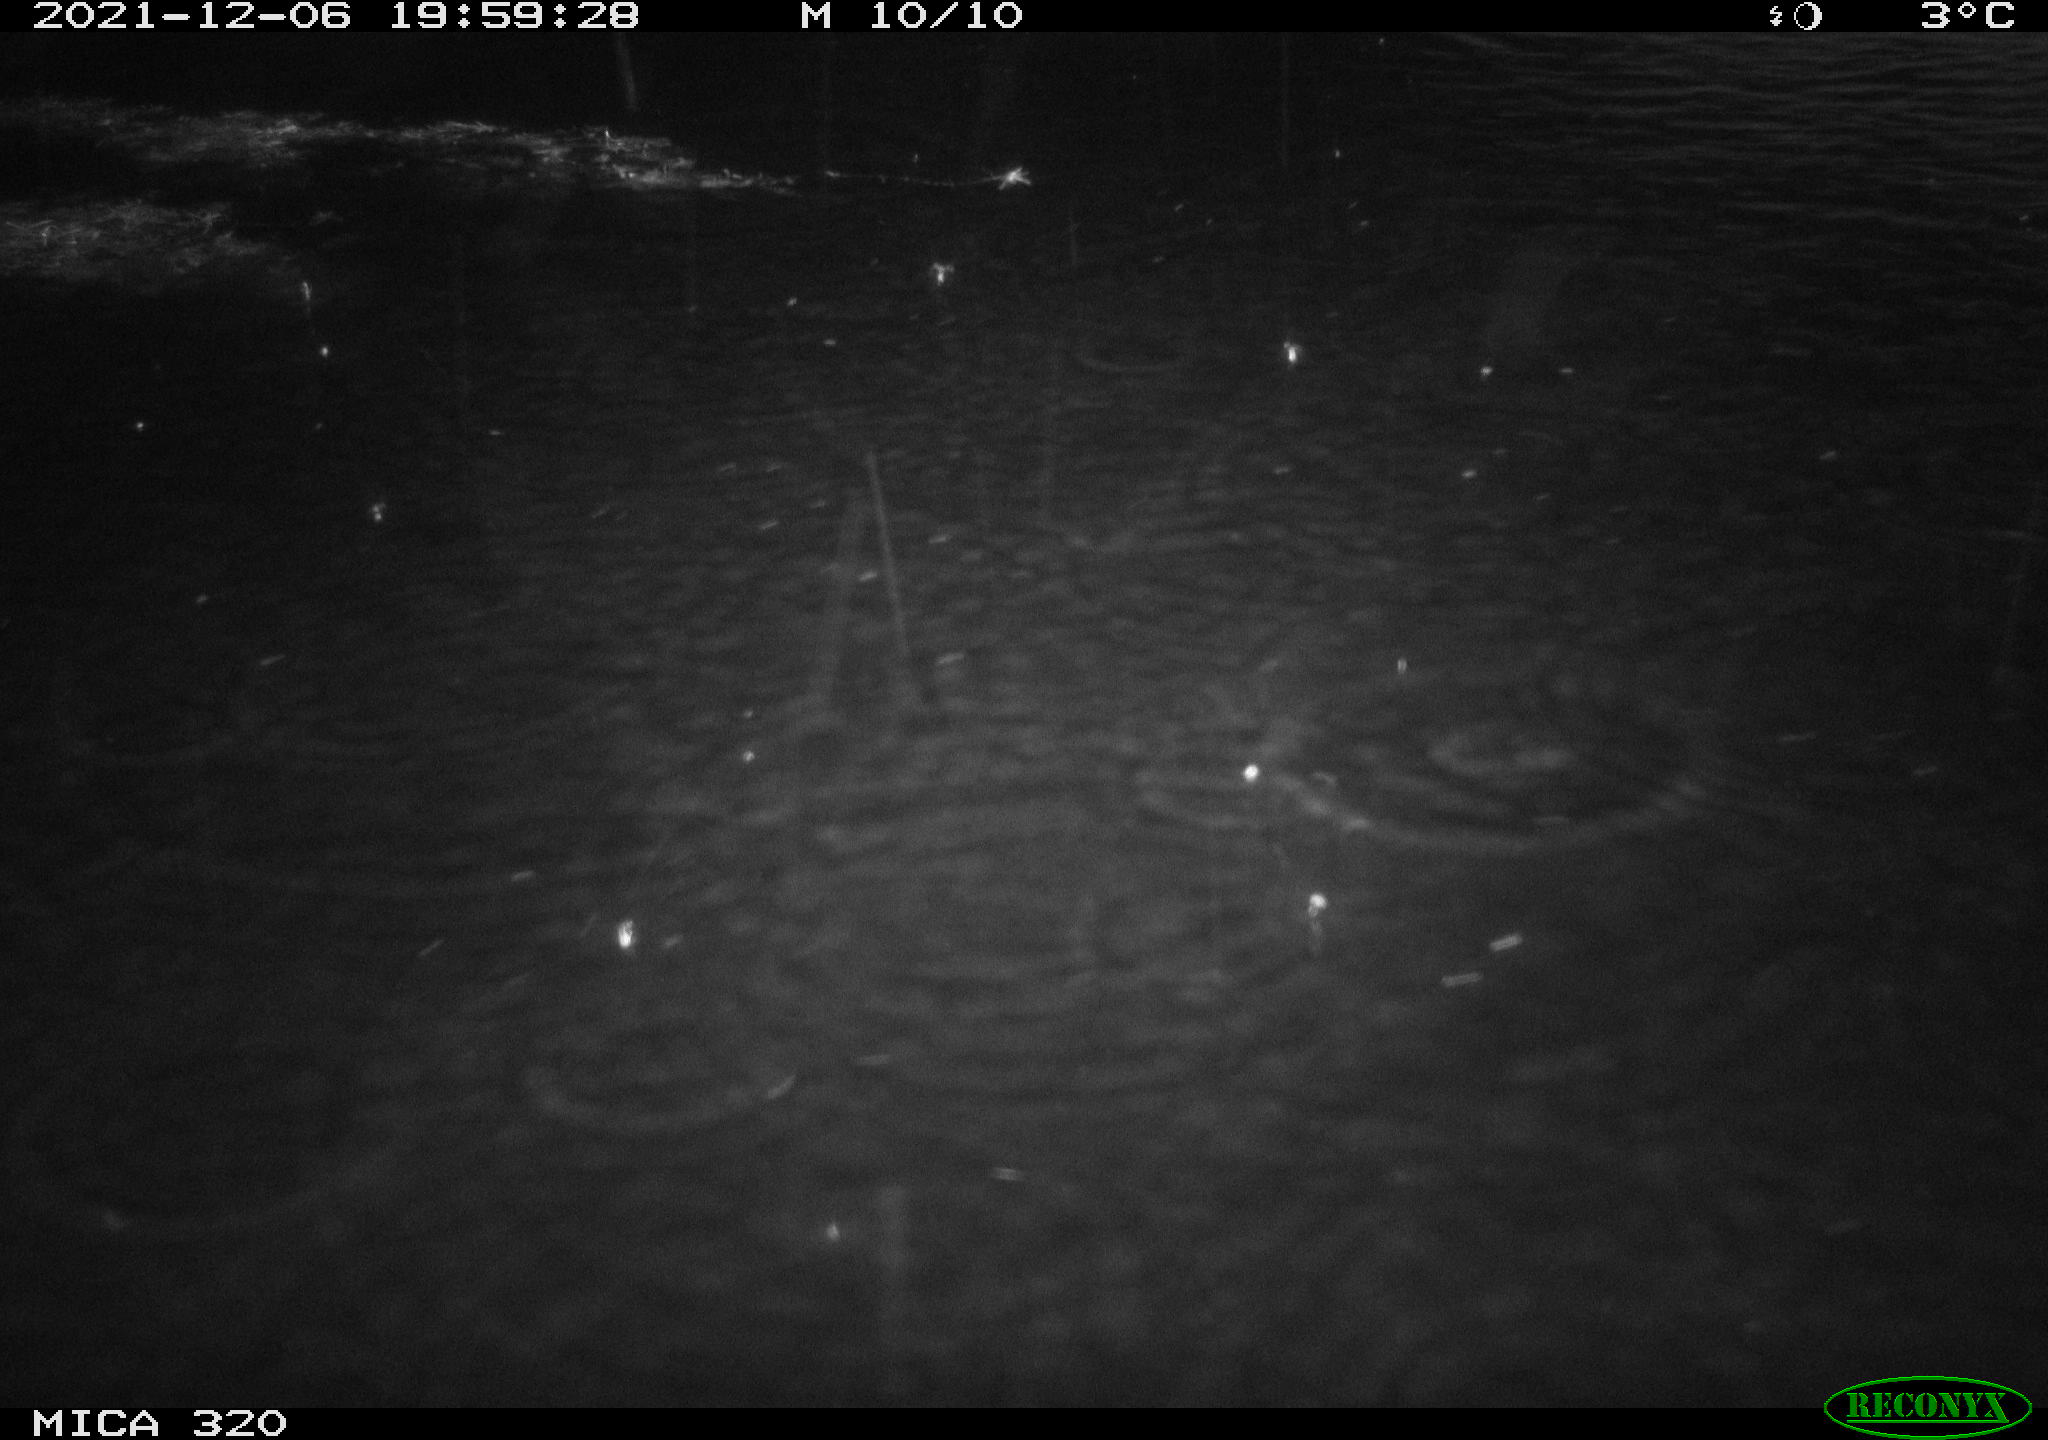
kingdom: Animalia
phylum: Chordata
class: Mammalia
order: Rodentia
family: Cricetidae
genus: Ondatra
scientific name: Ondatra zibethicus
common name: Muskrat
